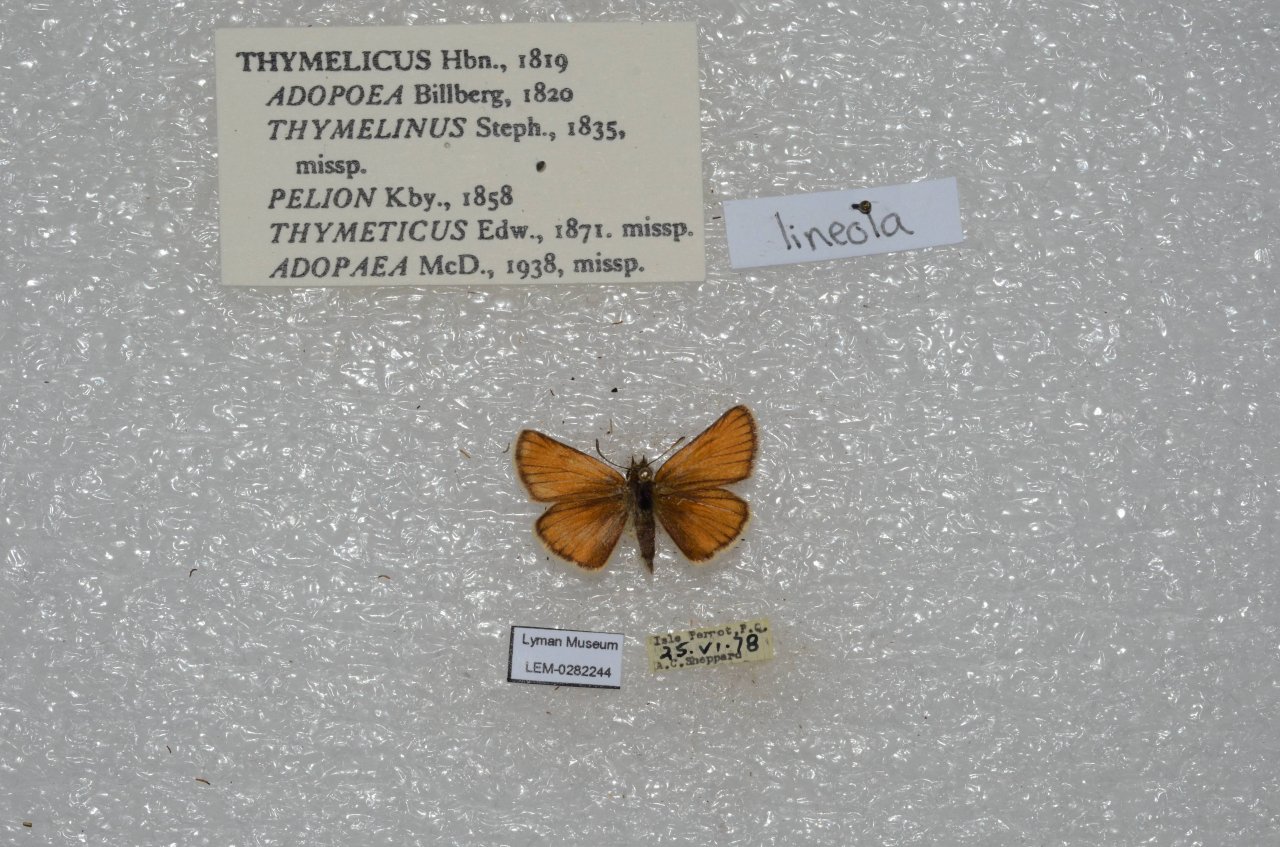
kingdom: Animalia
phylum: Arthropoda
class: Insecta
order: Lepidoptera
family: Hesperiidae
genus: Thymelicus
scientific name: Thymelicus lineola
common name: European Skipper
